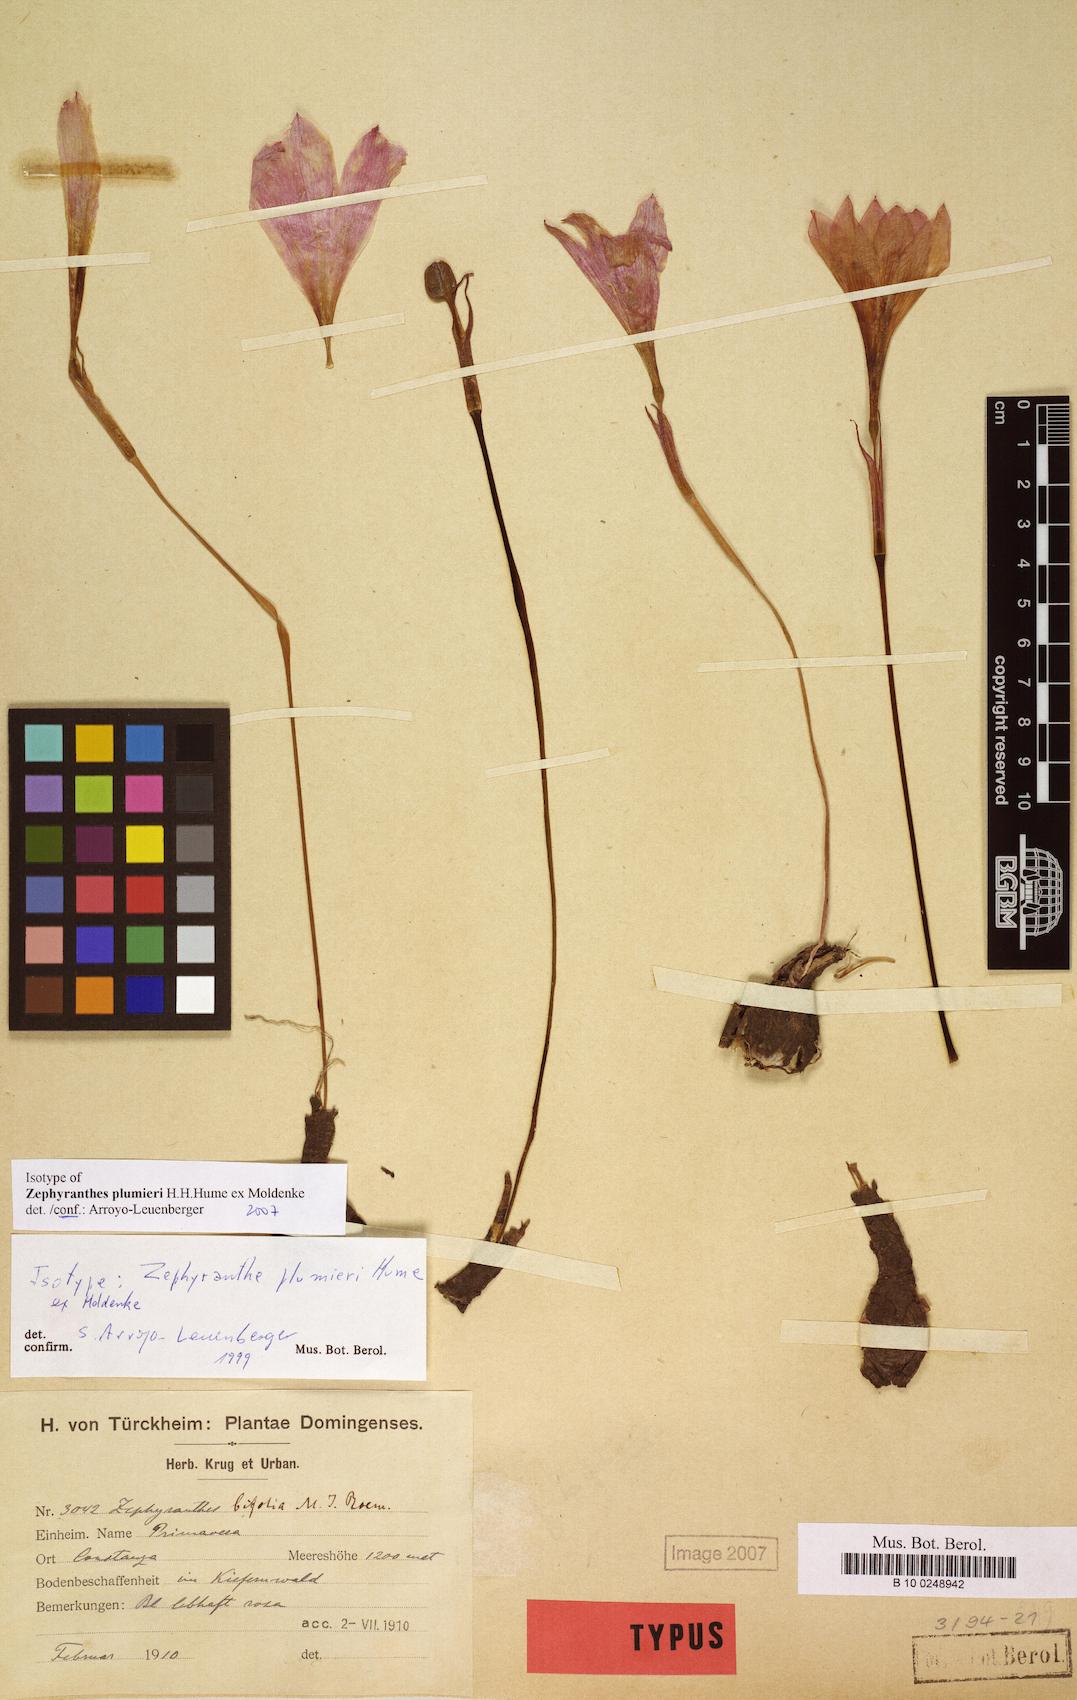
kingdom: Plantae
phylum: Tracheophyta
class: Liliopsida
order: Asparagales
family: Amaryllidaceae
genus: Zephyranthes
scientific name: Zephyranthes plumieri
